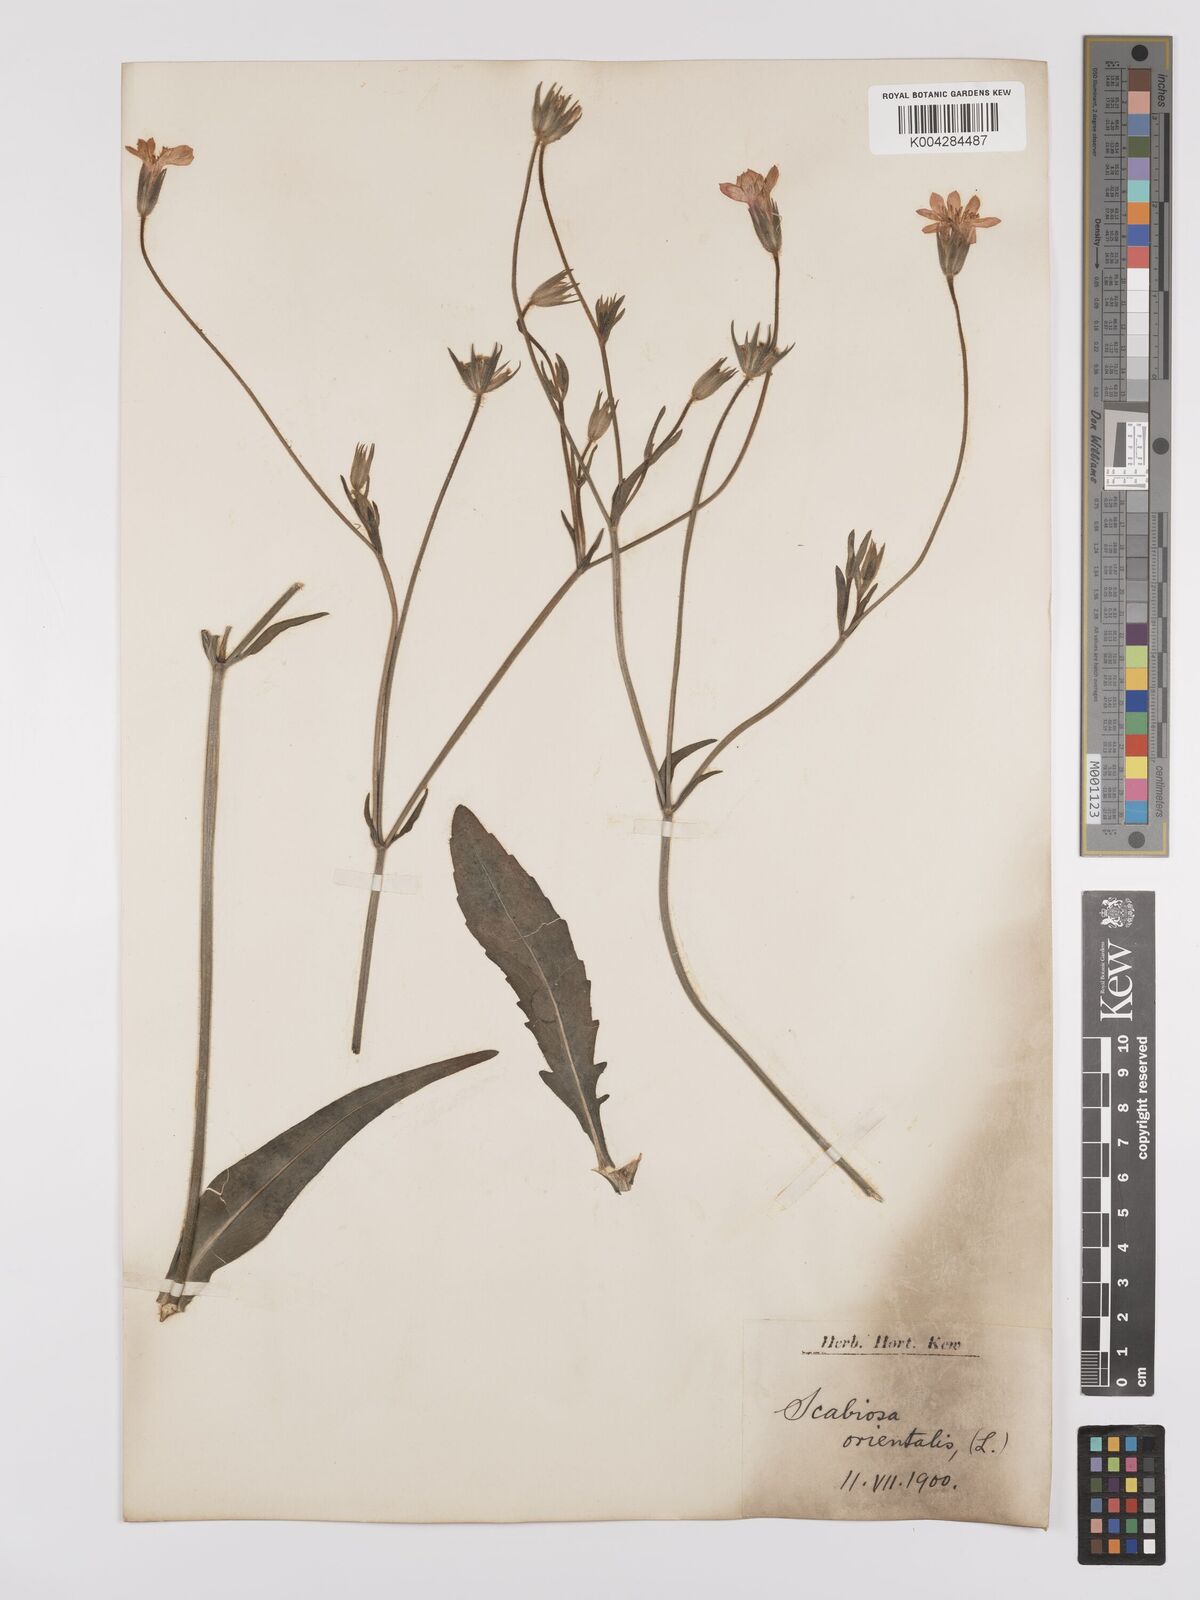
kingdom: Plantae
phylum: Tracheophyta
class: Magnoliopsida
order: Dipsacales
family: Caprifoliaceae
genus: Knautia
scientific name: Knautia orientalis
